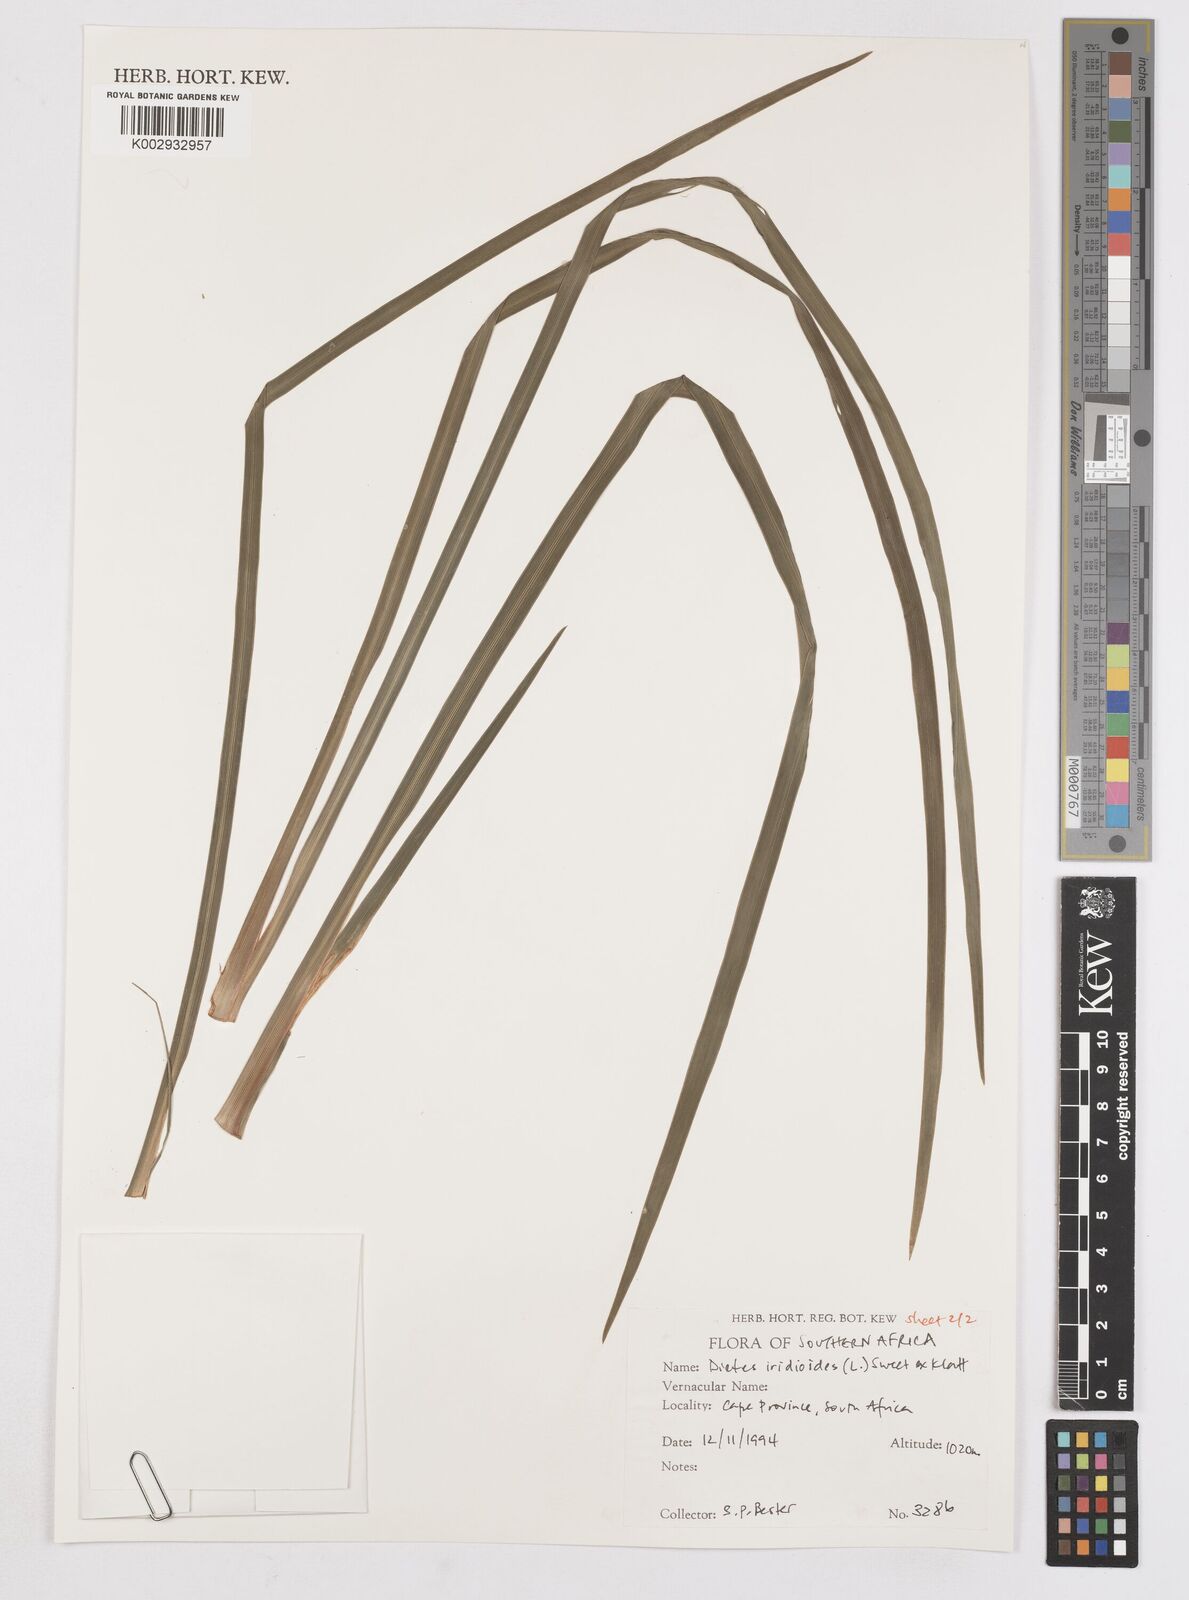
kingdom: Plantae
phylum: Tracheophyta
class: Liliopsida
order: Asparagales
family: Iridaceae
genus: Dietes
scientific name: Dietes iridioides
